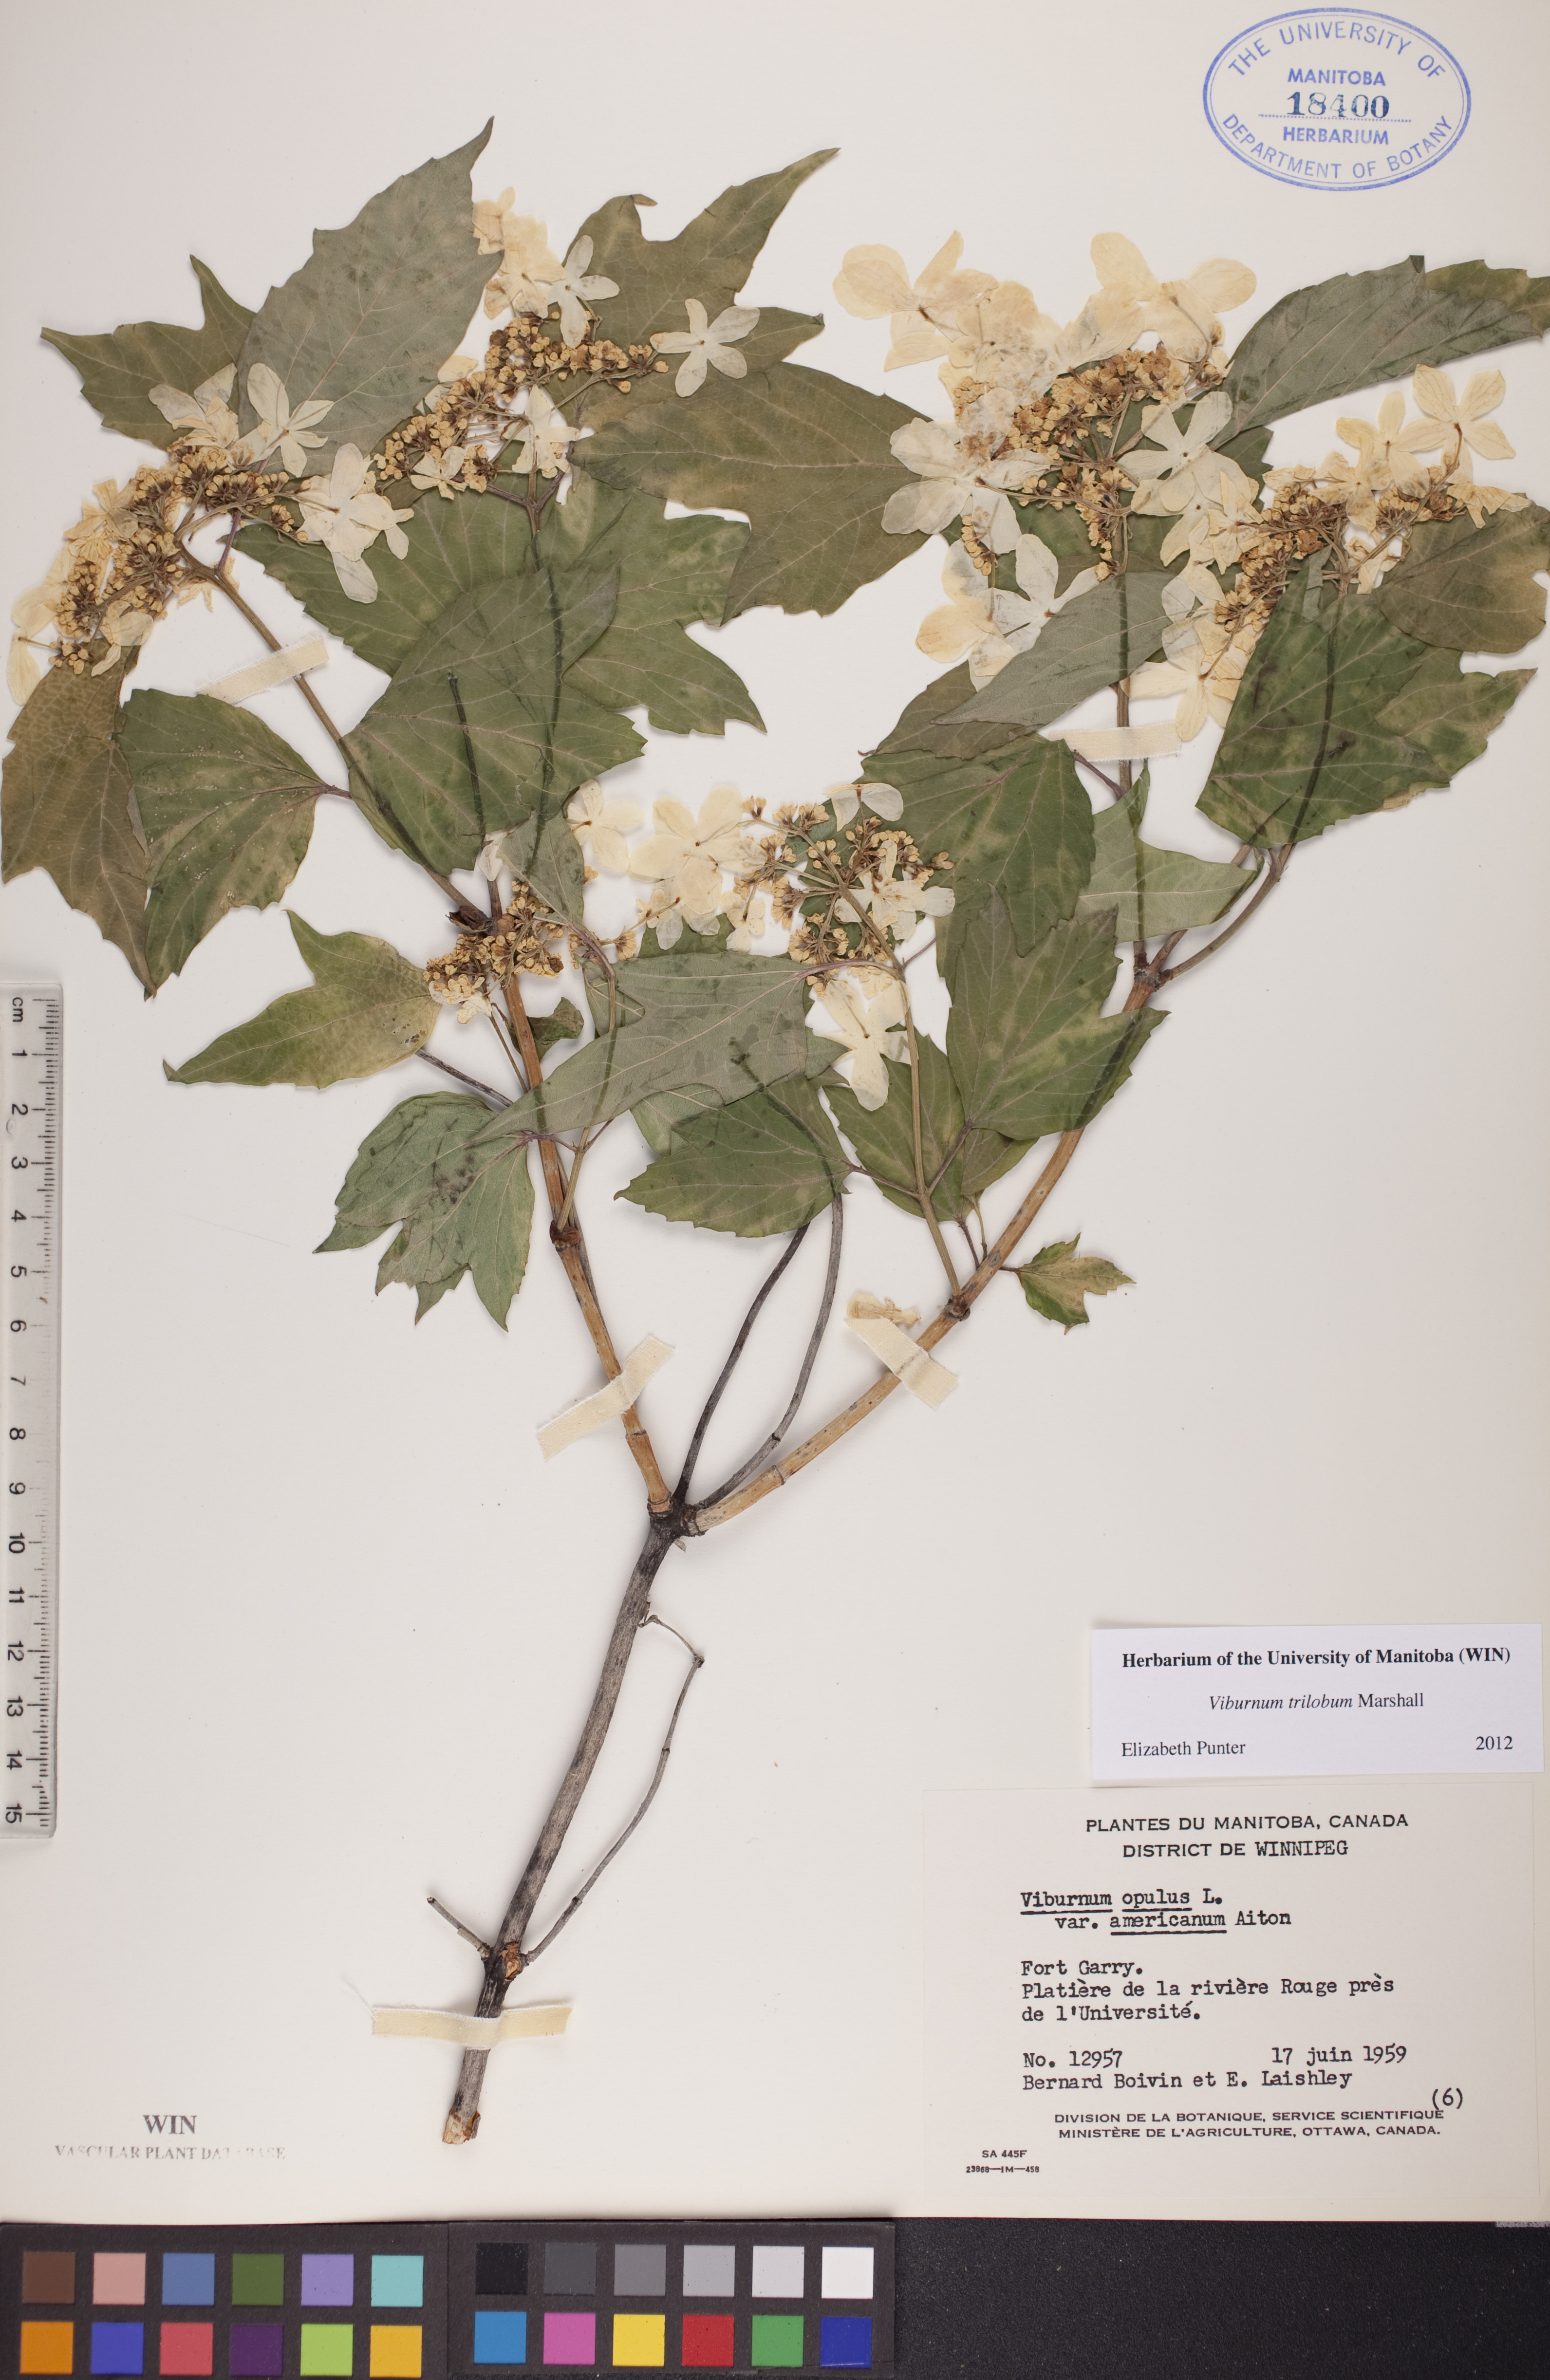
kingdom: Plantae
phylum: Tracheophyta
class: Magnoliopsida
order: Dipsacales
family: Viburnaceae
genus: Viburnum
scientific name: Viburnum trilobum
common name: American cranberrybush
